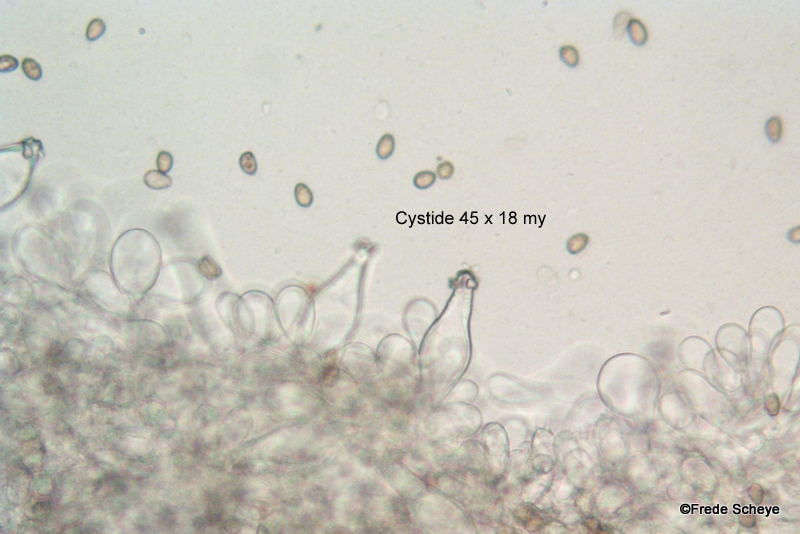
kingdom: Fungi
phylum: Basidiomycota
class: Agaricomycetes
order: Agaricales
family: Inocybaceae
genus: Inocybe
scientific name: Inocybe
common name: almindelig trævlhat
